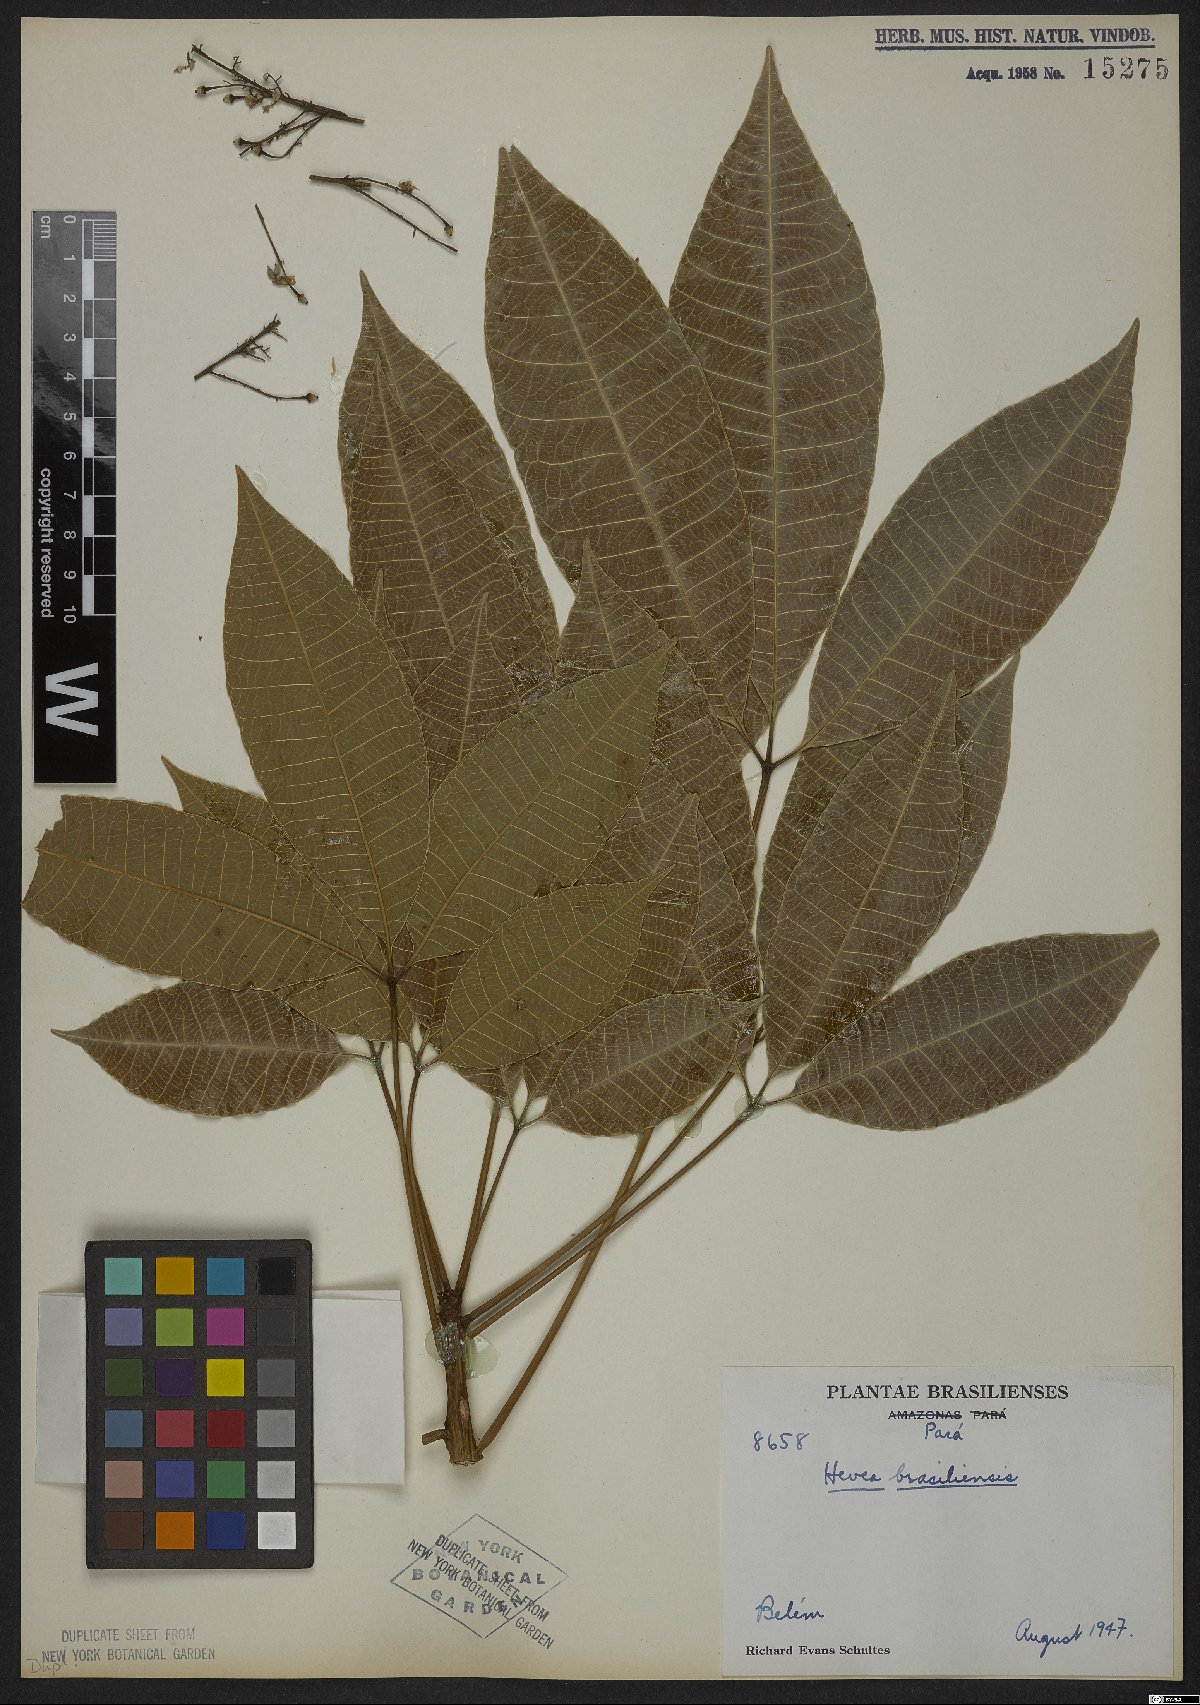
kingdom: Plantae
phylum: Tracheophyta
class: Magnoliopsida
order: Malpighiales
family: Euphorbiaceae
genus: Hevea
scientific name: Hevea brasiliensis
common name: Natural rubber
